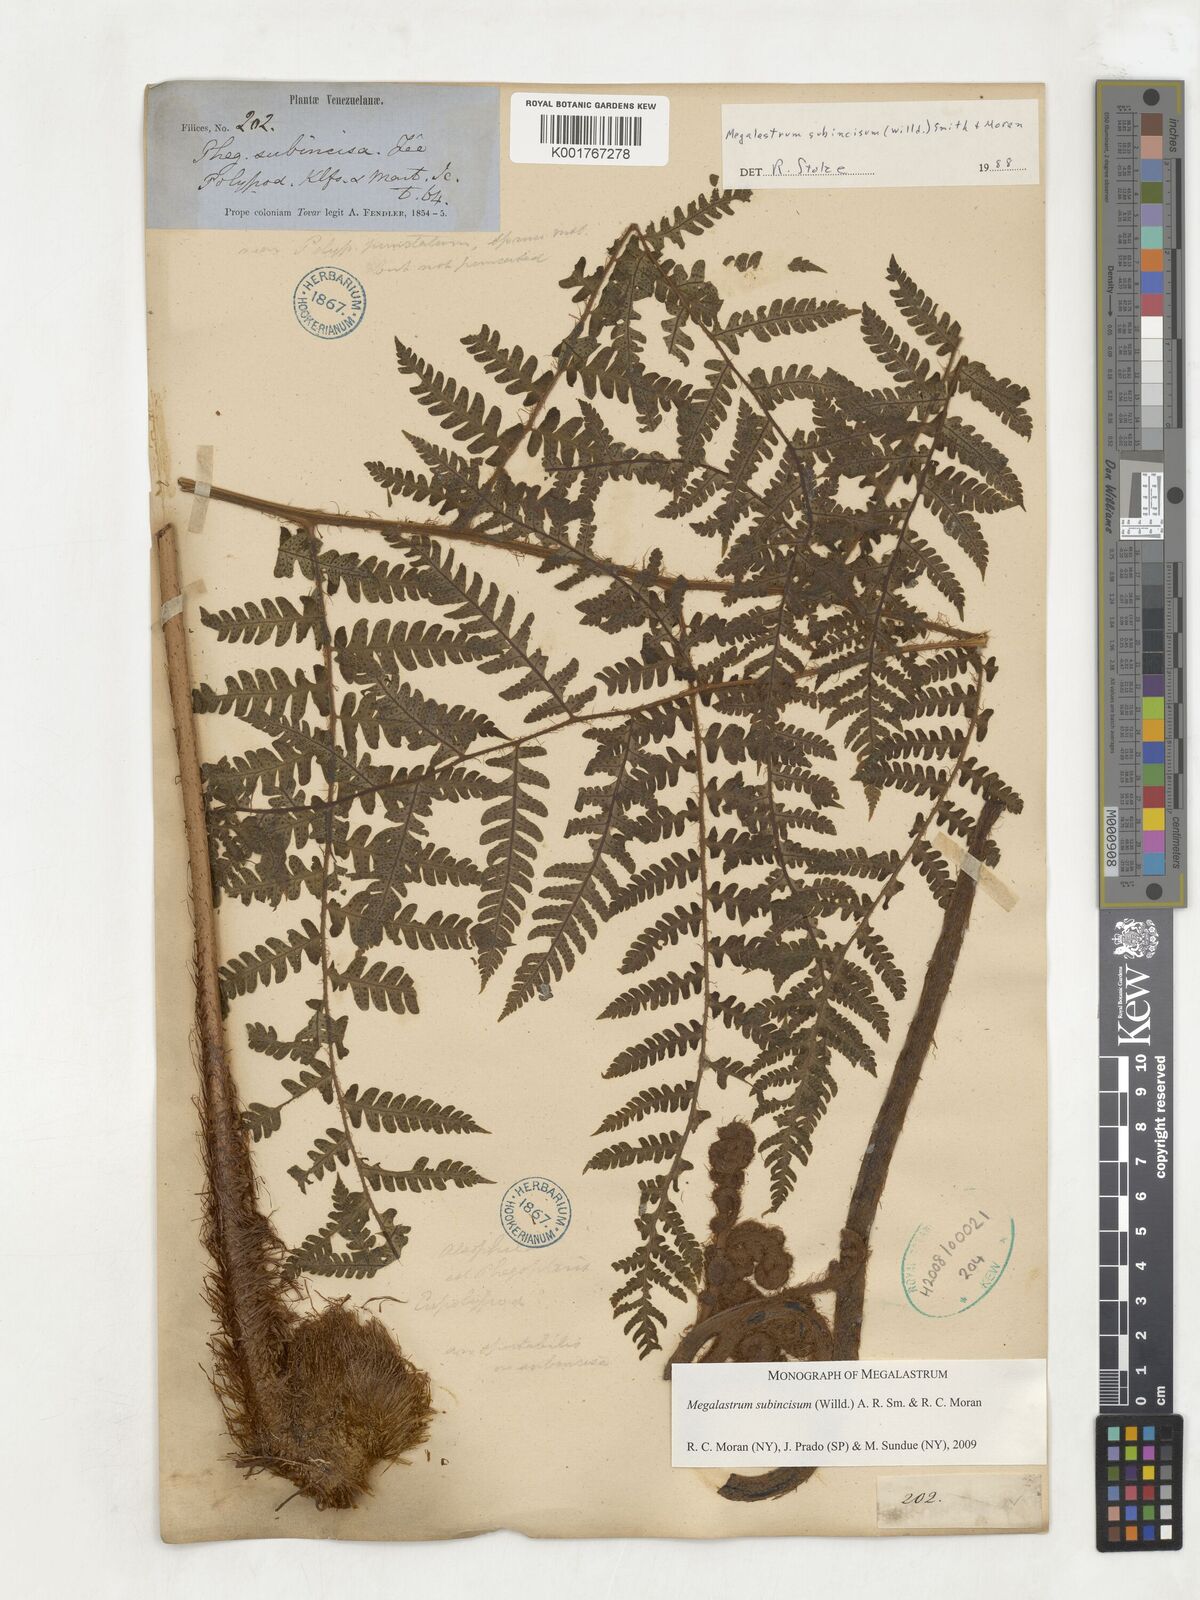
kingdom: Plantae
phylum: Tracheophyta
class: Polypodiopsida
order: Polypodiales
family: Dryopteridaceae
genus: Megalastrum
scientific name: Megalastrum subincisum
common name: Jagleaf junglefern
